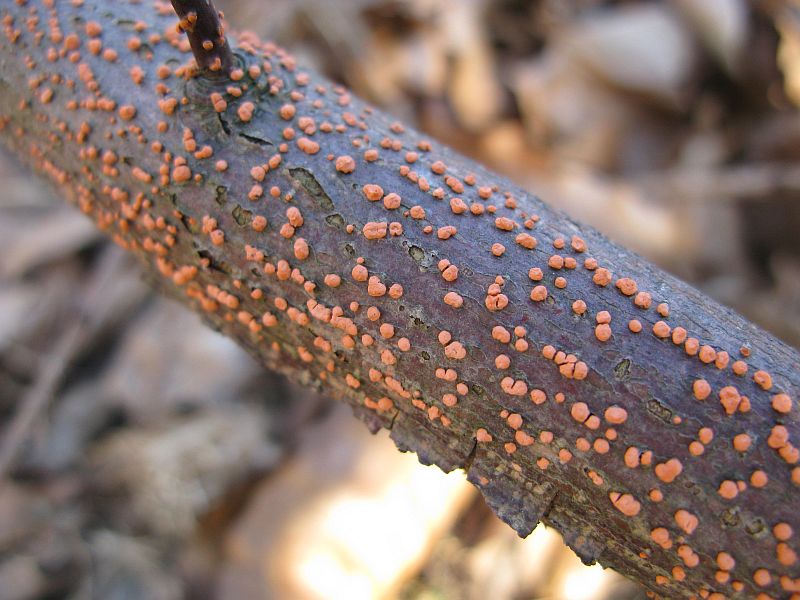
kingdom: Fungi
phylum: Ascomycota
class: Sordariomycetes
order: Hypocreales
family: Nectriaceae
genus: Nectria
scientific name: Nectria cinnabarina
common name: almindelig cinnobersvamp
